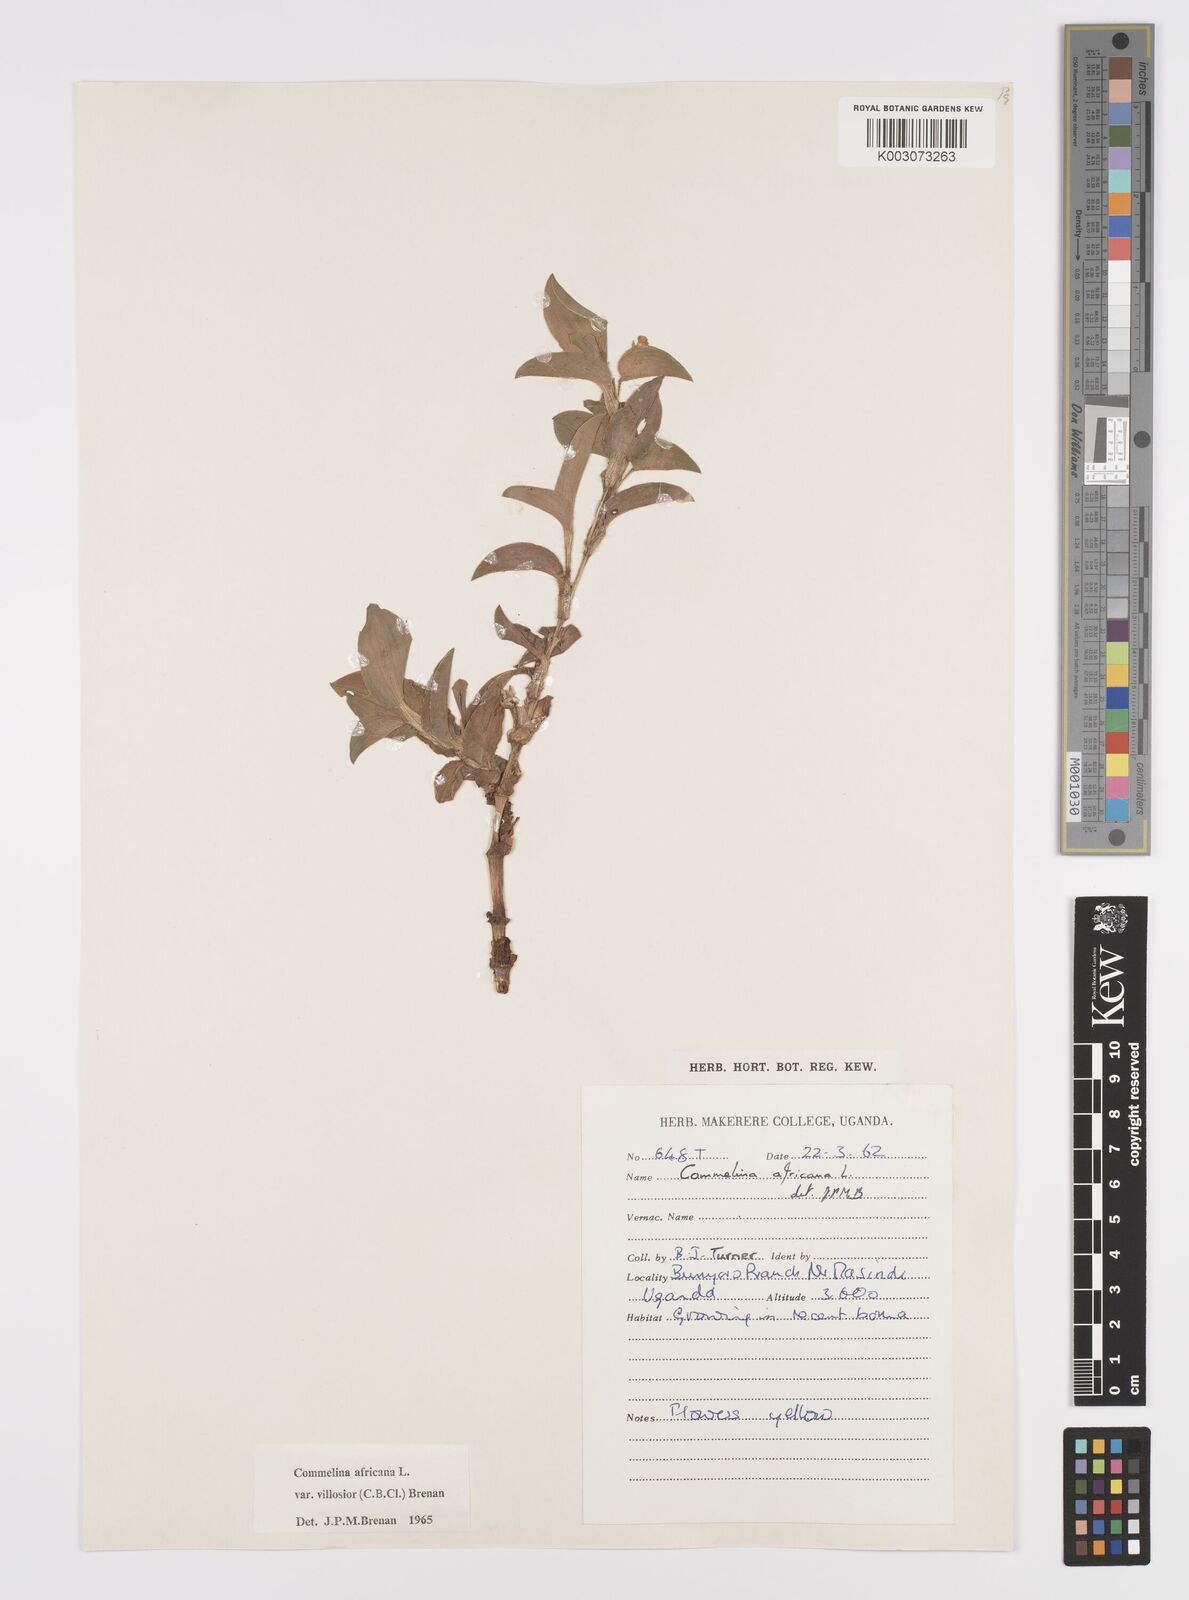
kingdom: Plantae
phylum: Tracheophyta
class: Liliopsida
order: Commelinales
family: Commelinaceae
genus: Commelina
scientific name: Commelina africana
